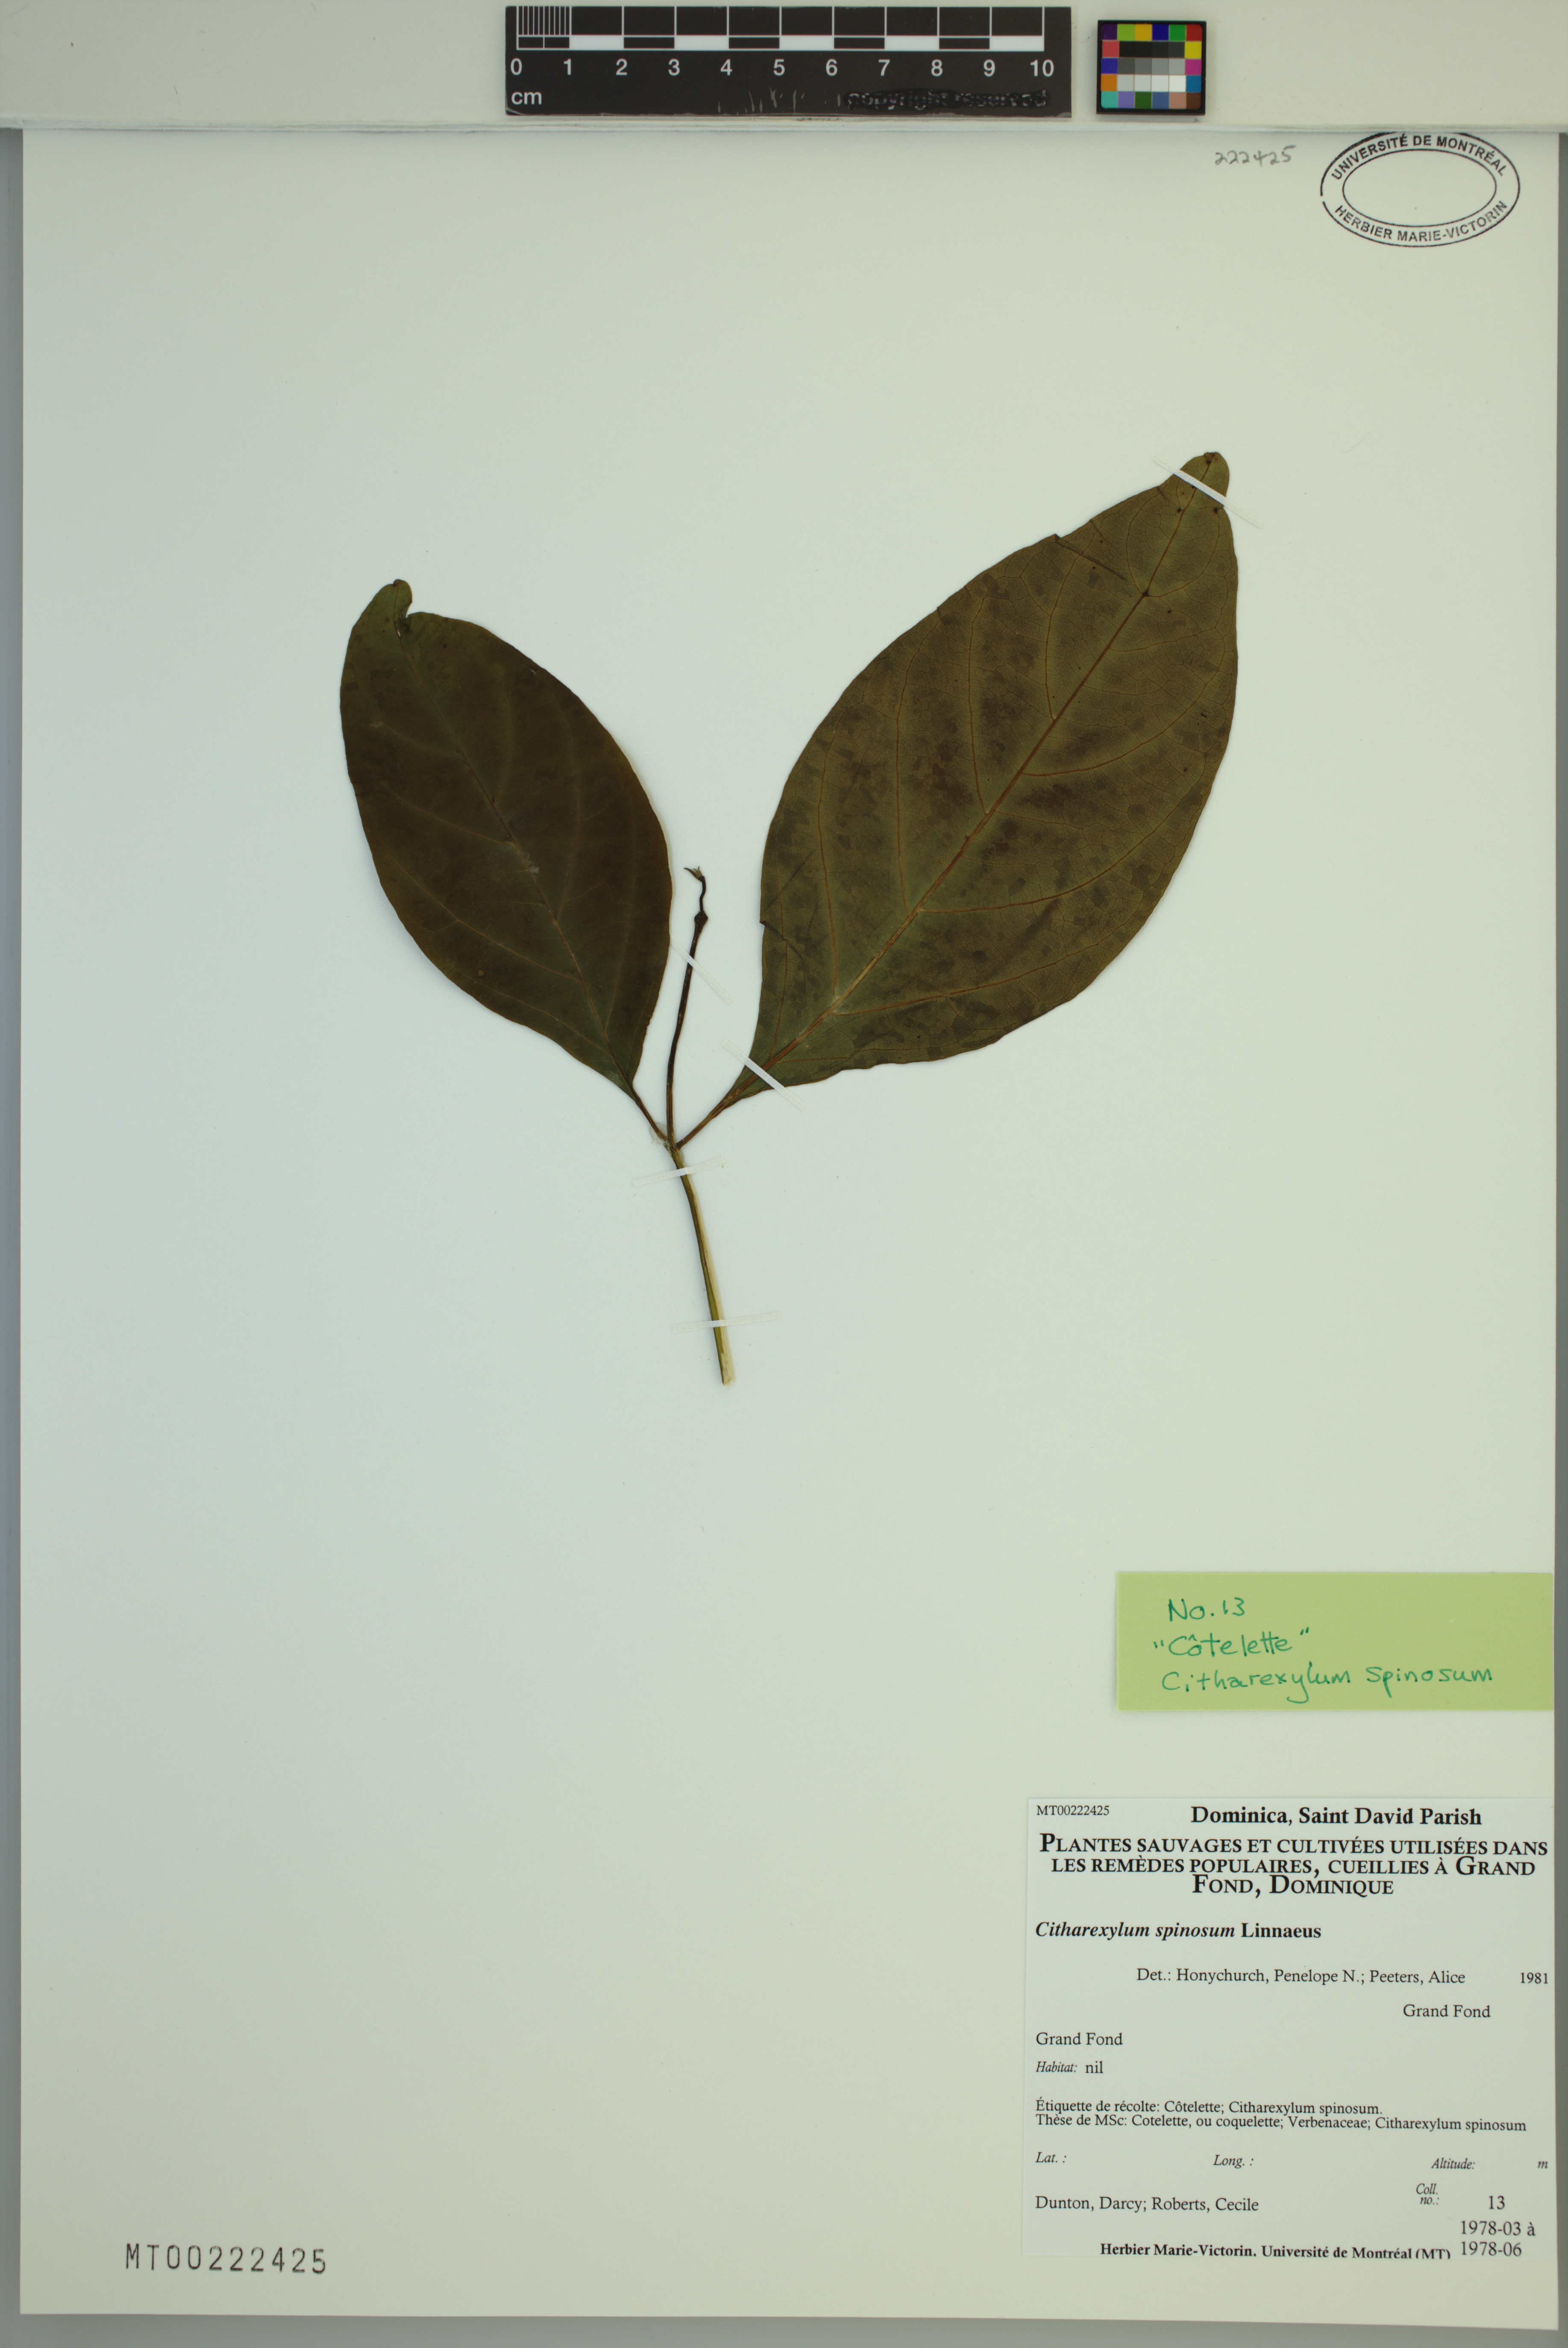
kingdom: Plantae
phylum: Tracheophyta
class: Magnoliopsida
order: Lamiales
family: Verbenaceae
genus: Citharexylum
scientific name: Citharexylum spinosum
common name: Fiddlewood
